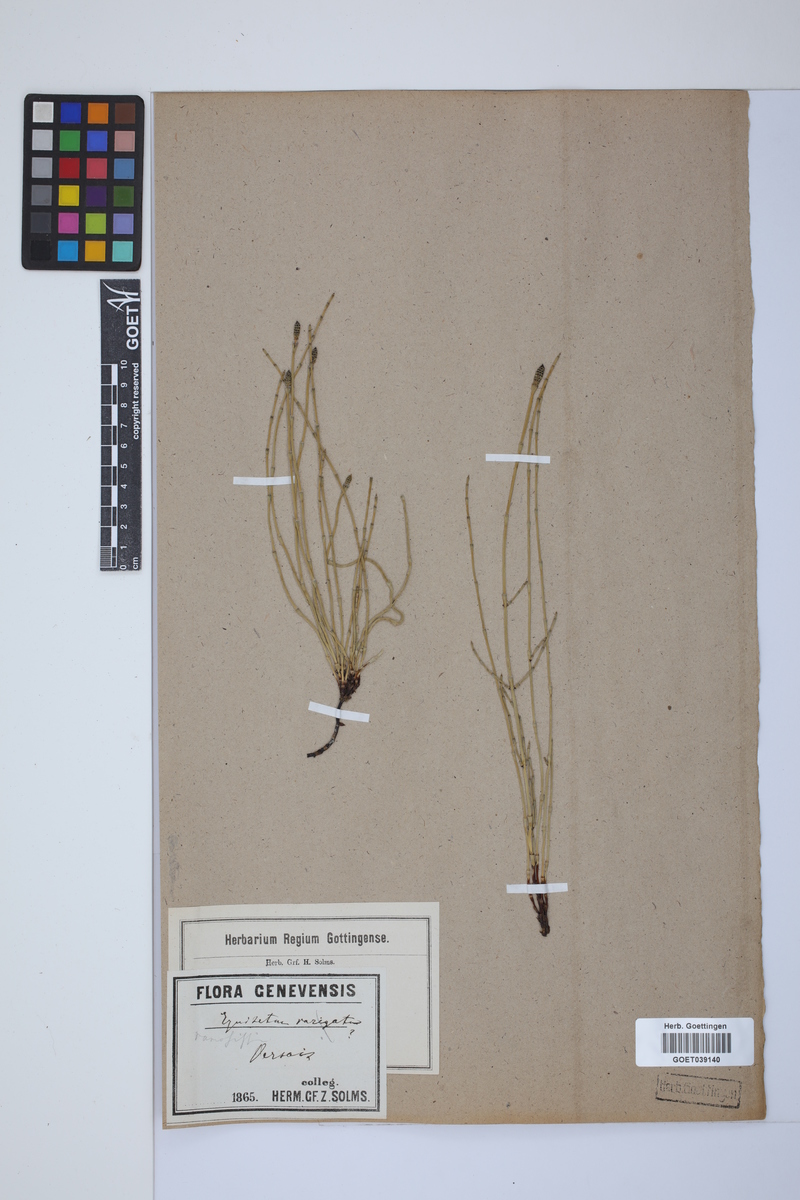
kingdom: Plantae
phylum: Tracheophyta
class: Polypodiopsida
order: Equisetales
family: Equisetaceae
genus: Equisetum
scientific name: Equisetum giganteum
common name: Giant horsetail
